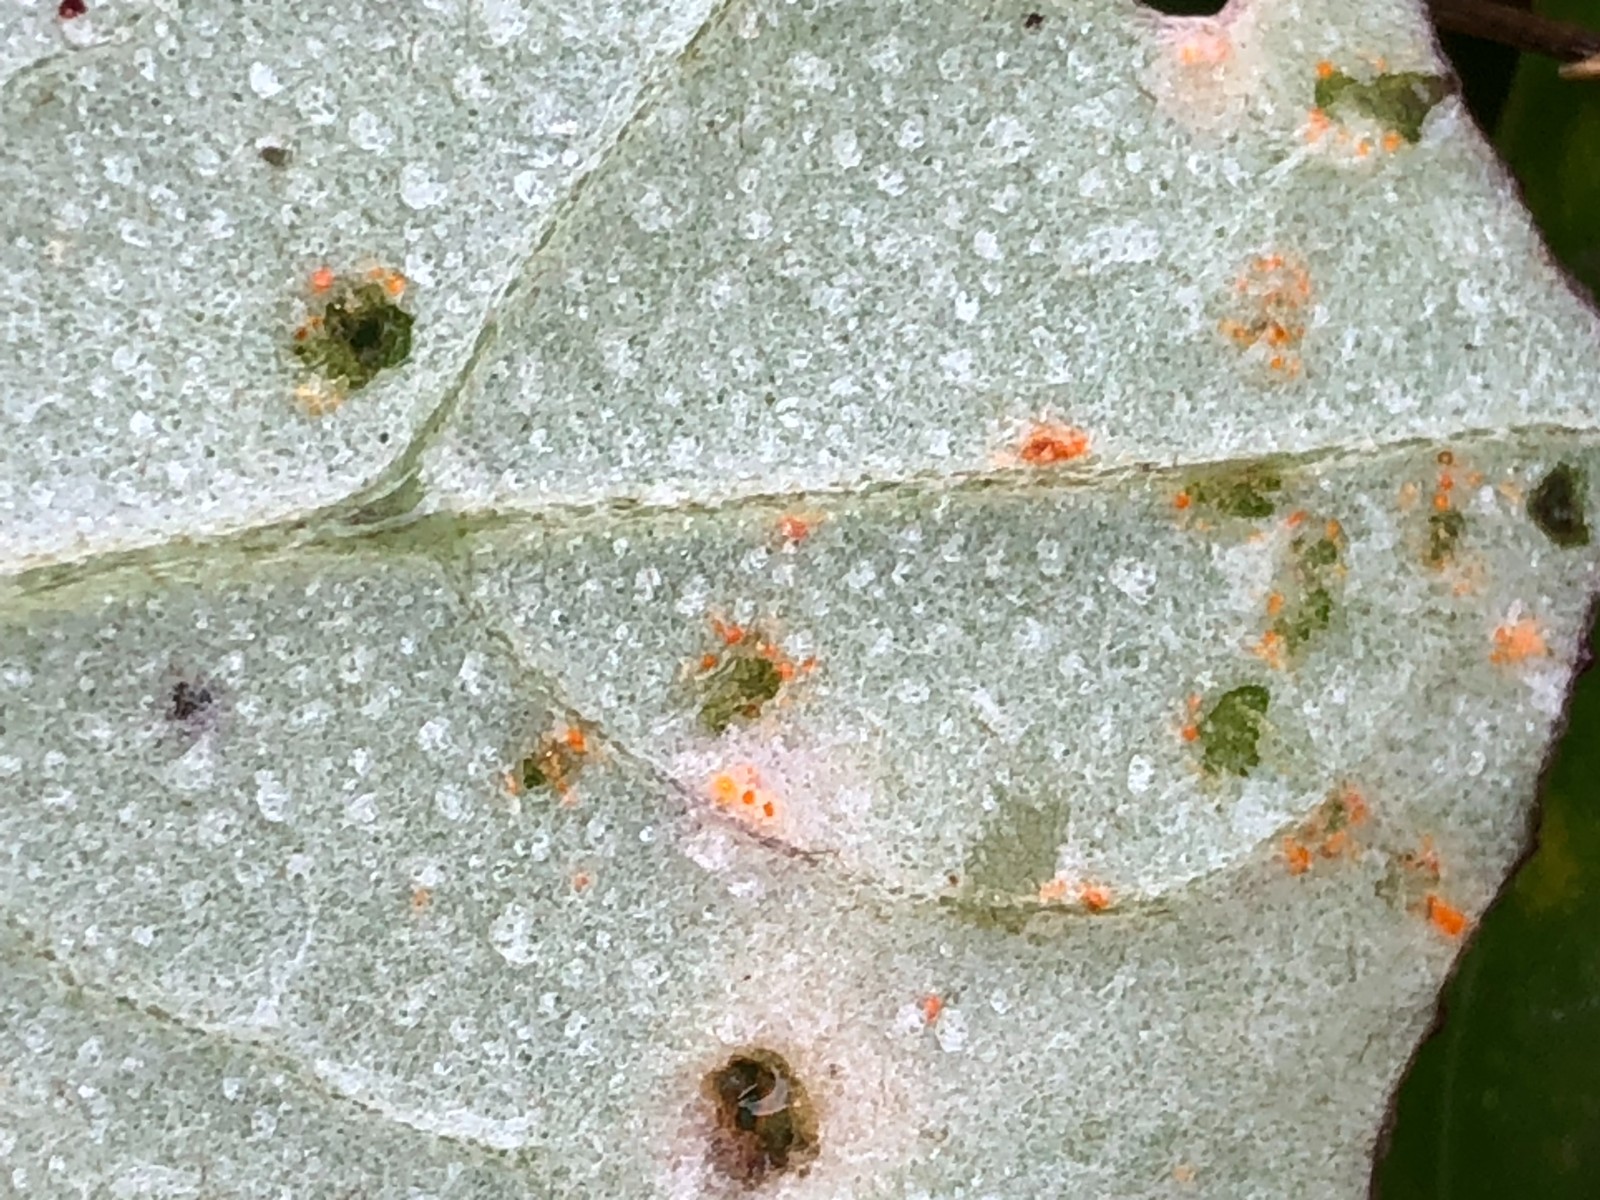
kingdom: Fungi
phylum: Basidiomycota
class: Pucciniomycetes
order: Pucciniales
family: Pucciniaceae
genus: Puccinia
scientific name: Puccinia poarum
